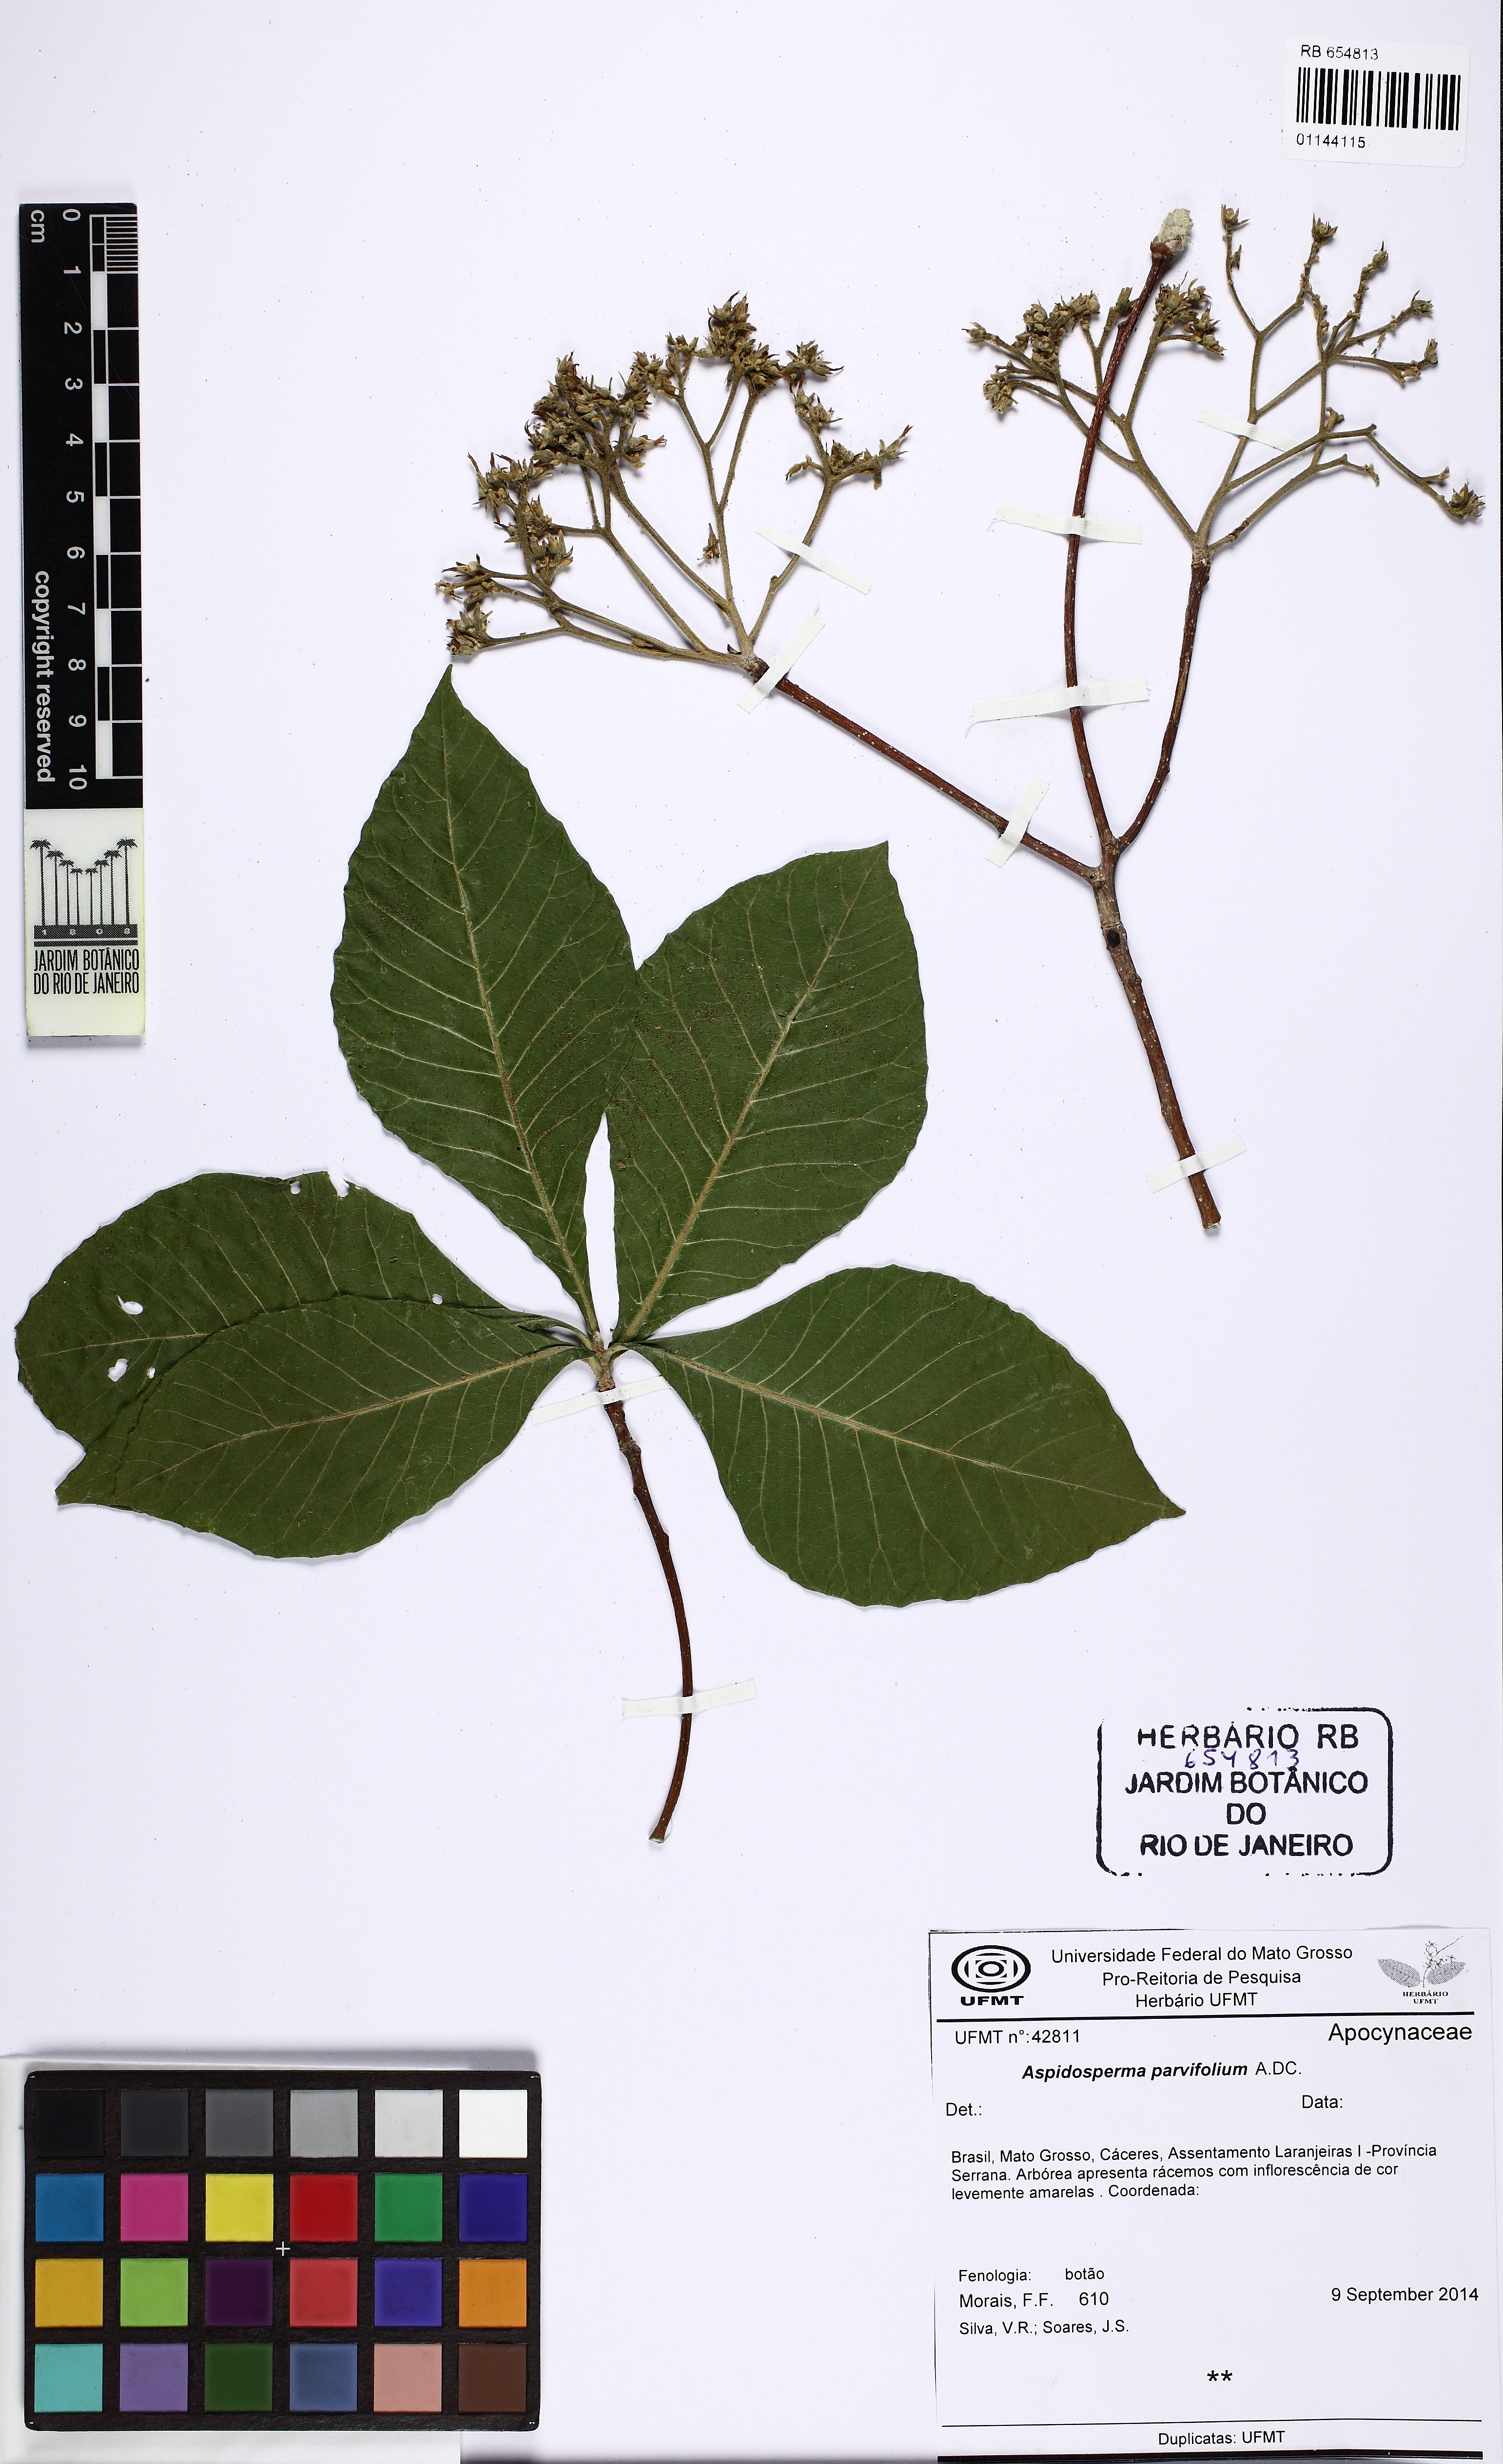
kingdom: Plantae
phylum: Tracheophyta
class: Magnoliopsida
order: Gentianales
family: Apocynaceae
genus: Aspidosperma
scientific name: Aspidosperma parvifolium
